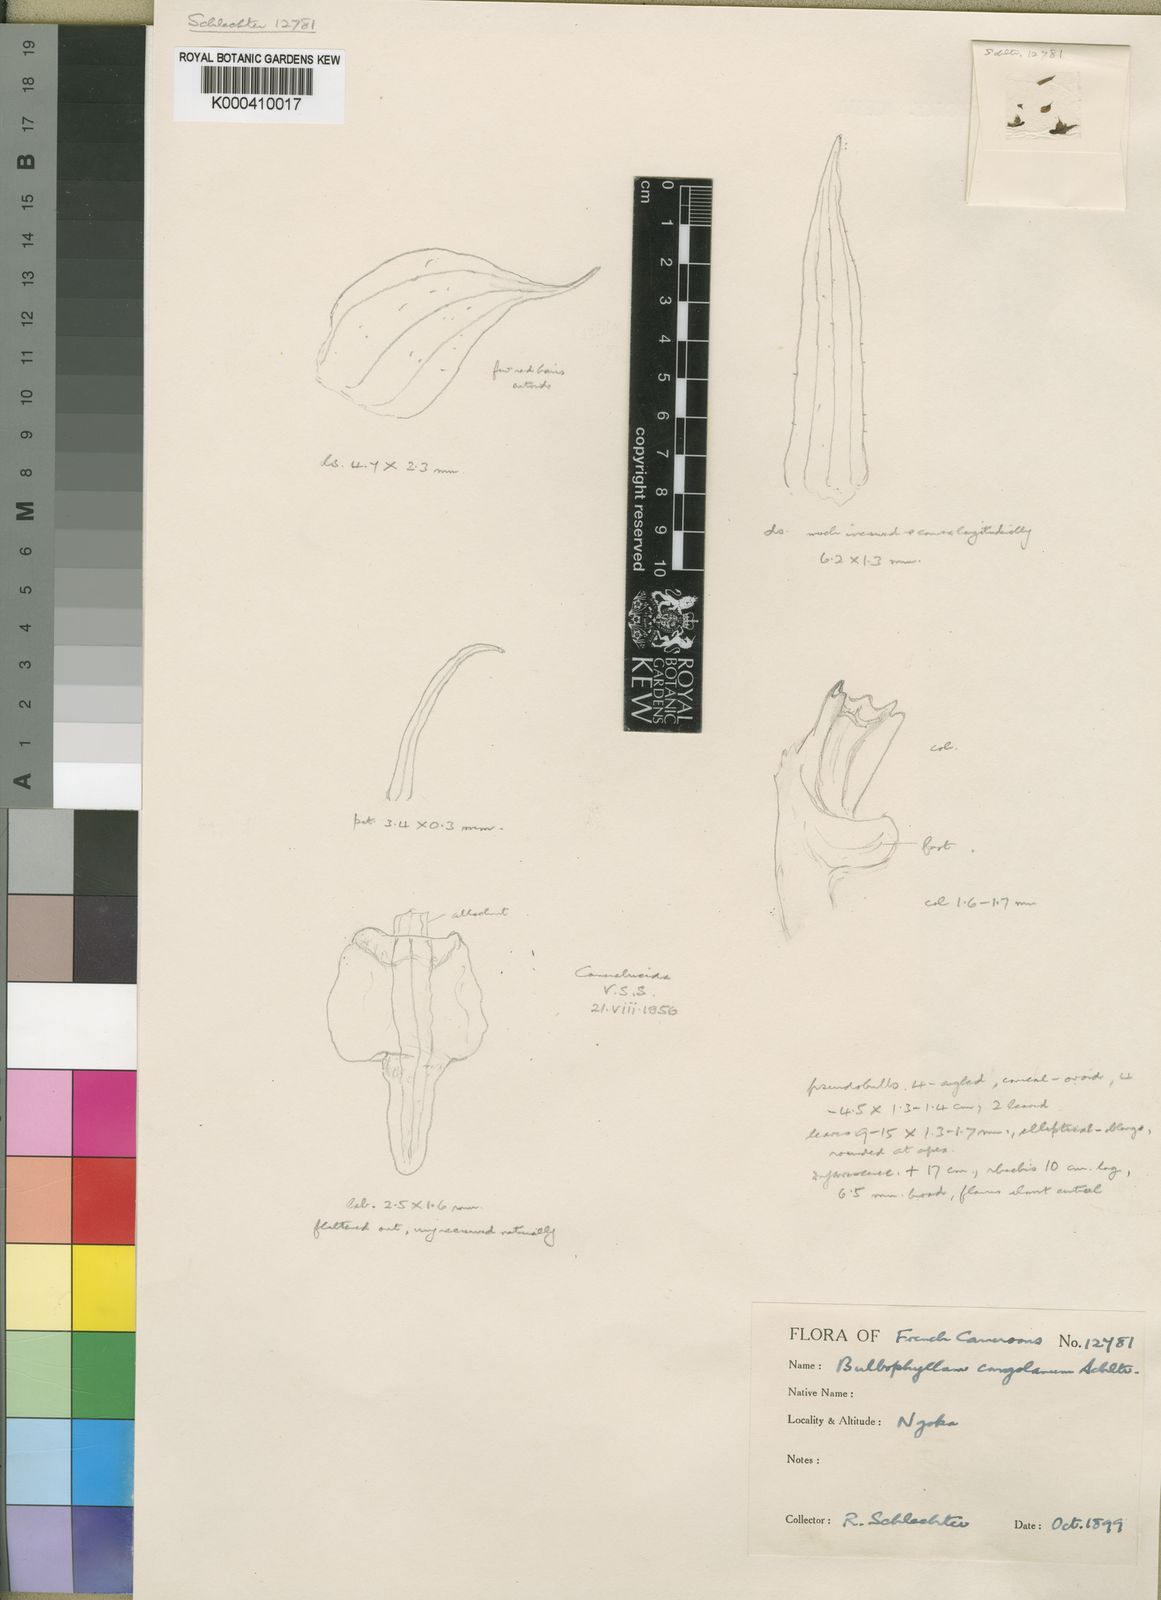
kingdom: Plantae
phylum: Tracheophyta
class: Liliopsida
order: Asparagales
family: Orchidaceae
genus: Bulbophyllum
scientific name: Bulbophyllum scaberulum
